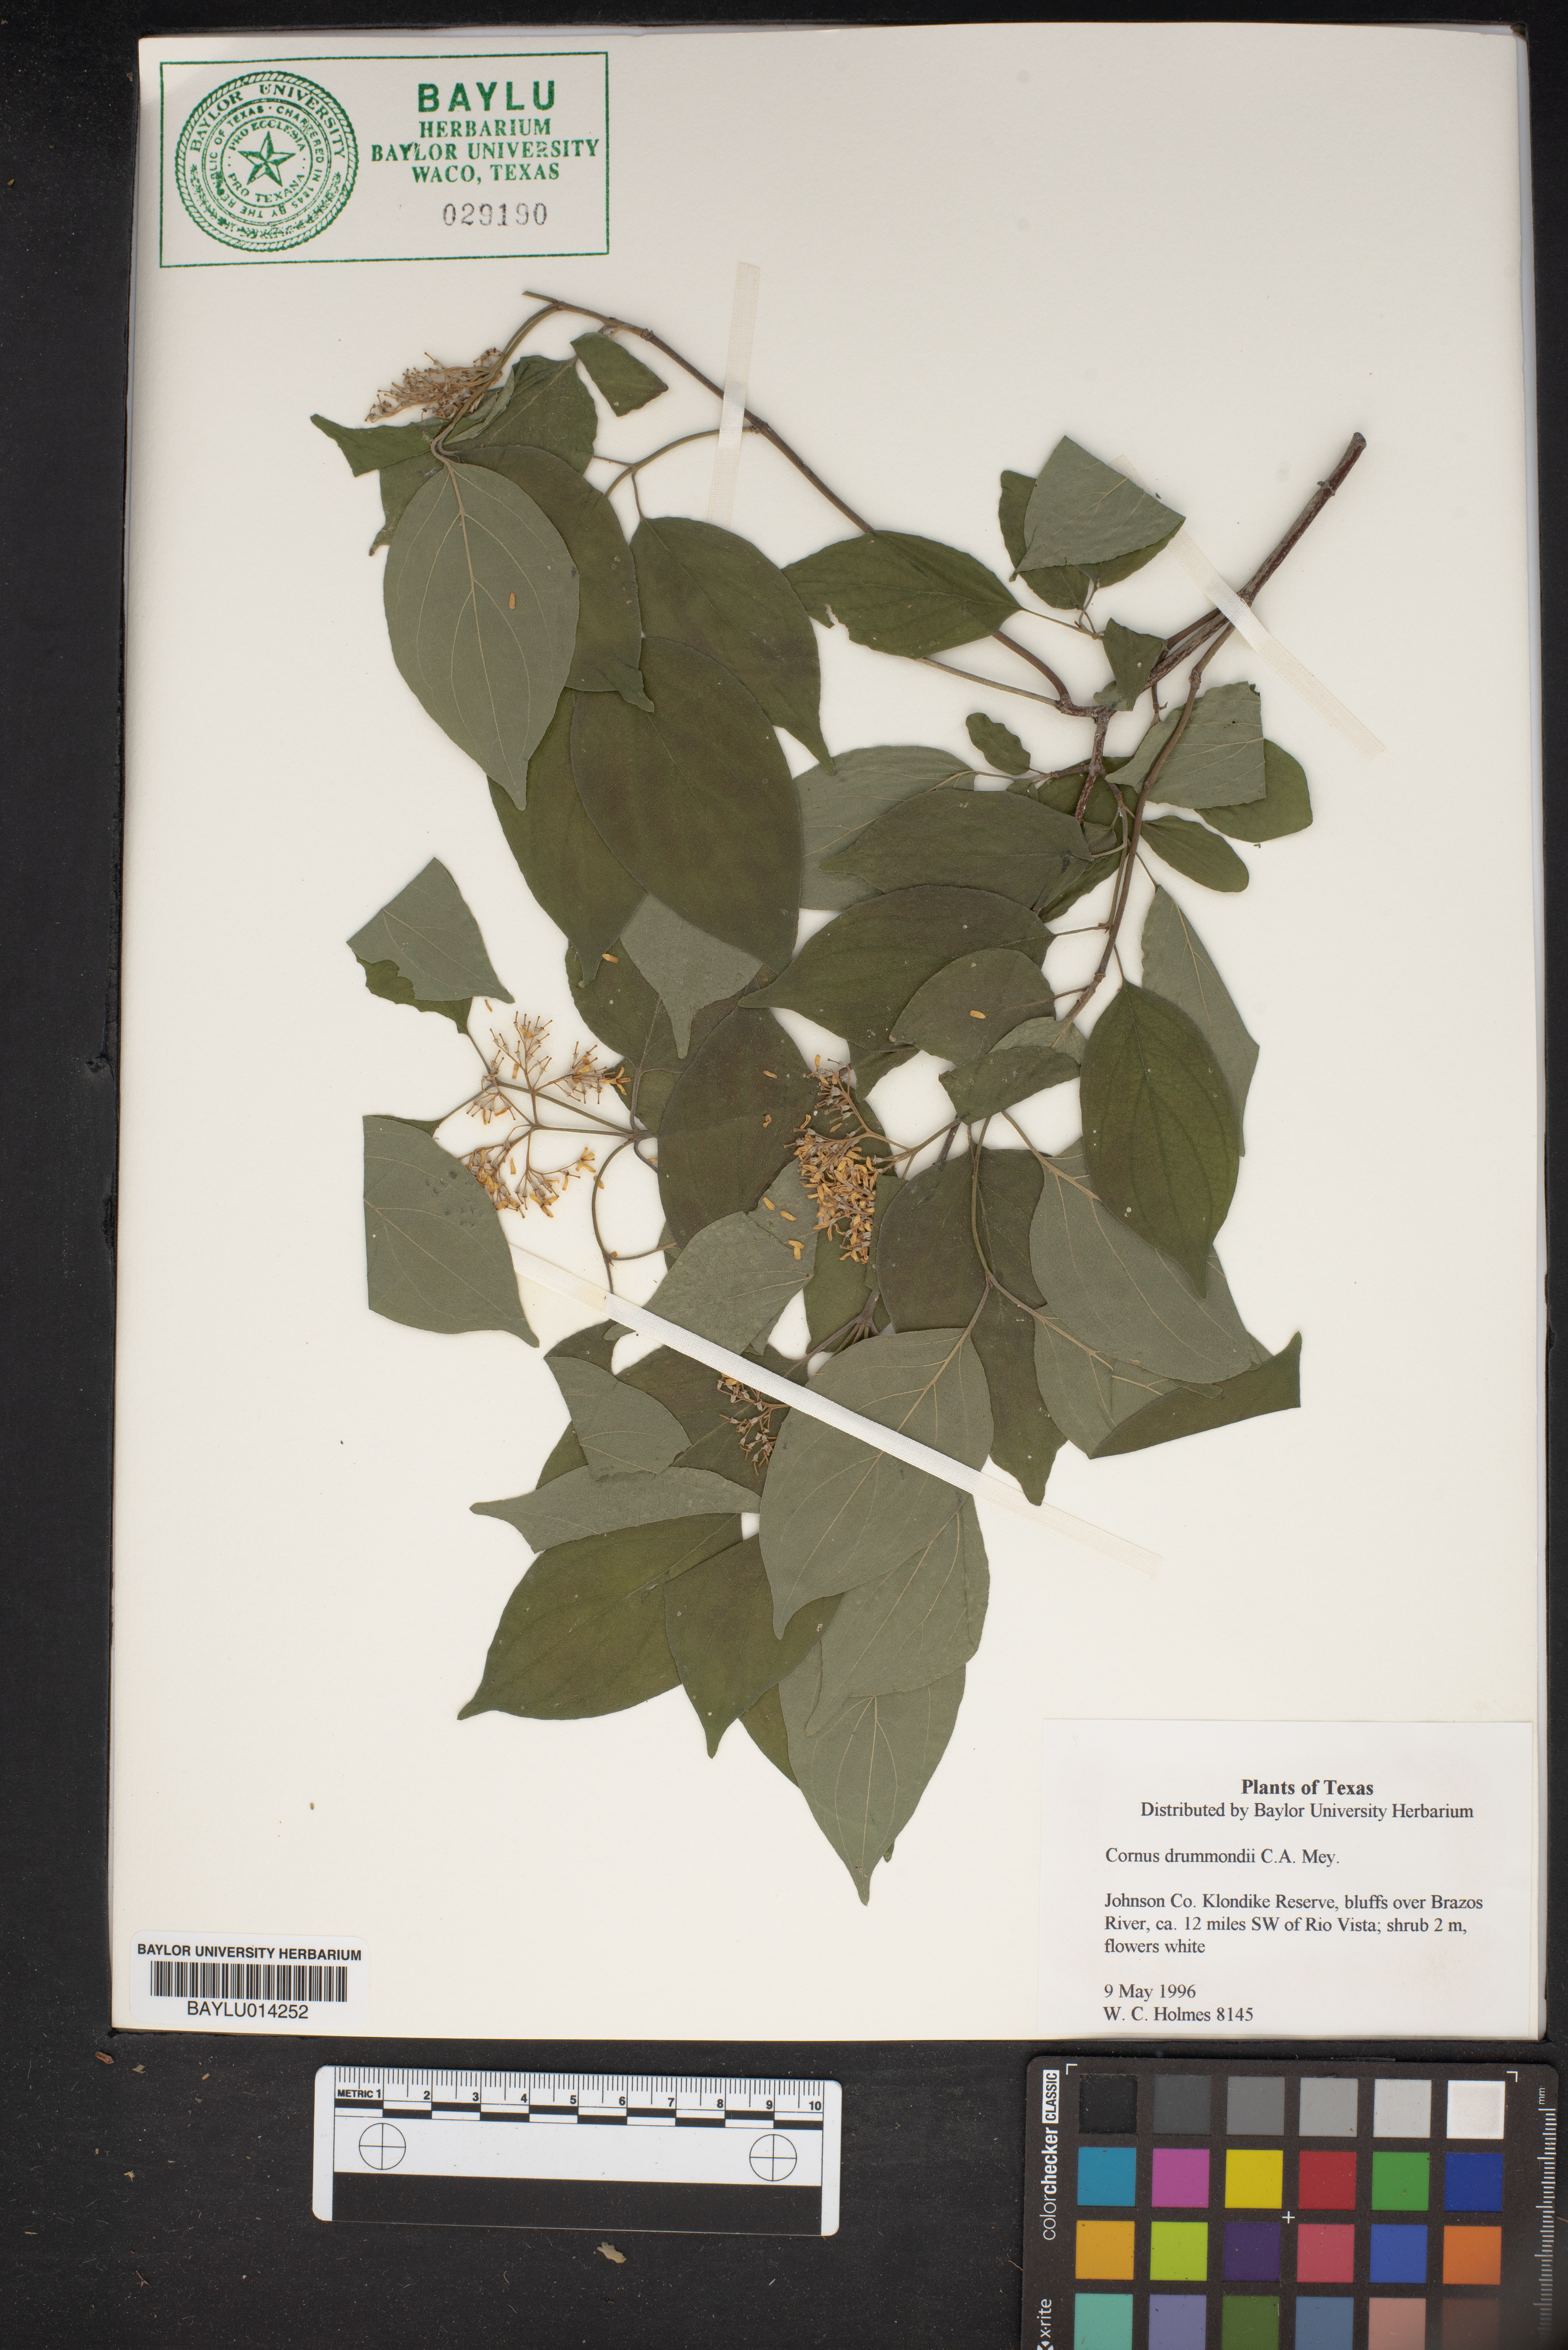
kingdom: Plantae
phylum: Tracheophyta
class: Magnoliopsida
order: Cornales
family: Cornaceae
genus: Cornus
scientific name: Cornus drummondii
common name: Rough-leaf dogwood
